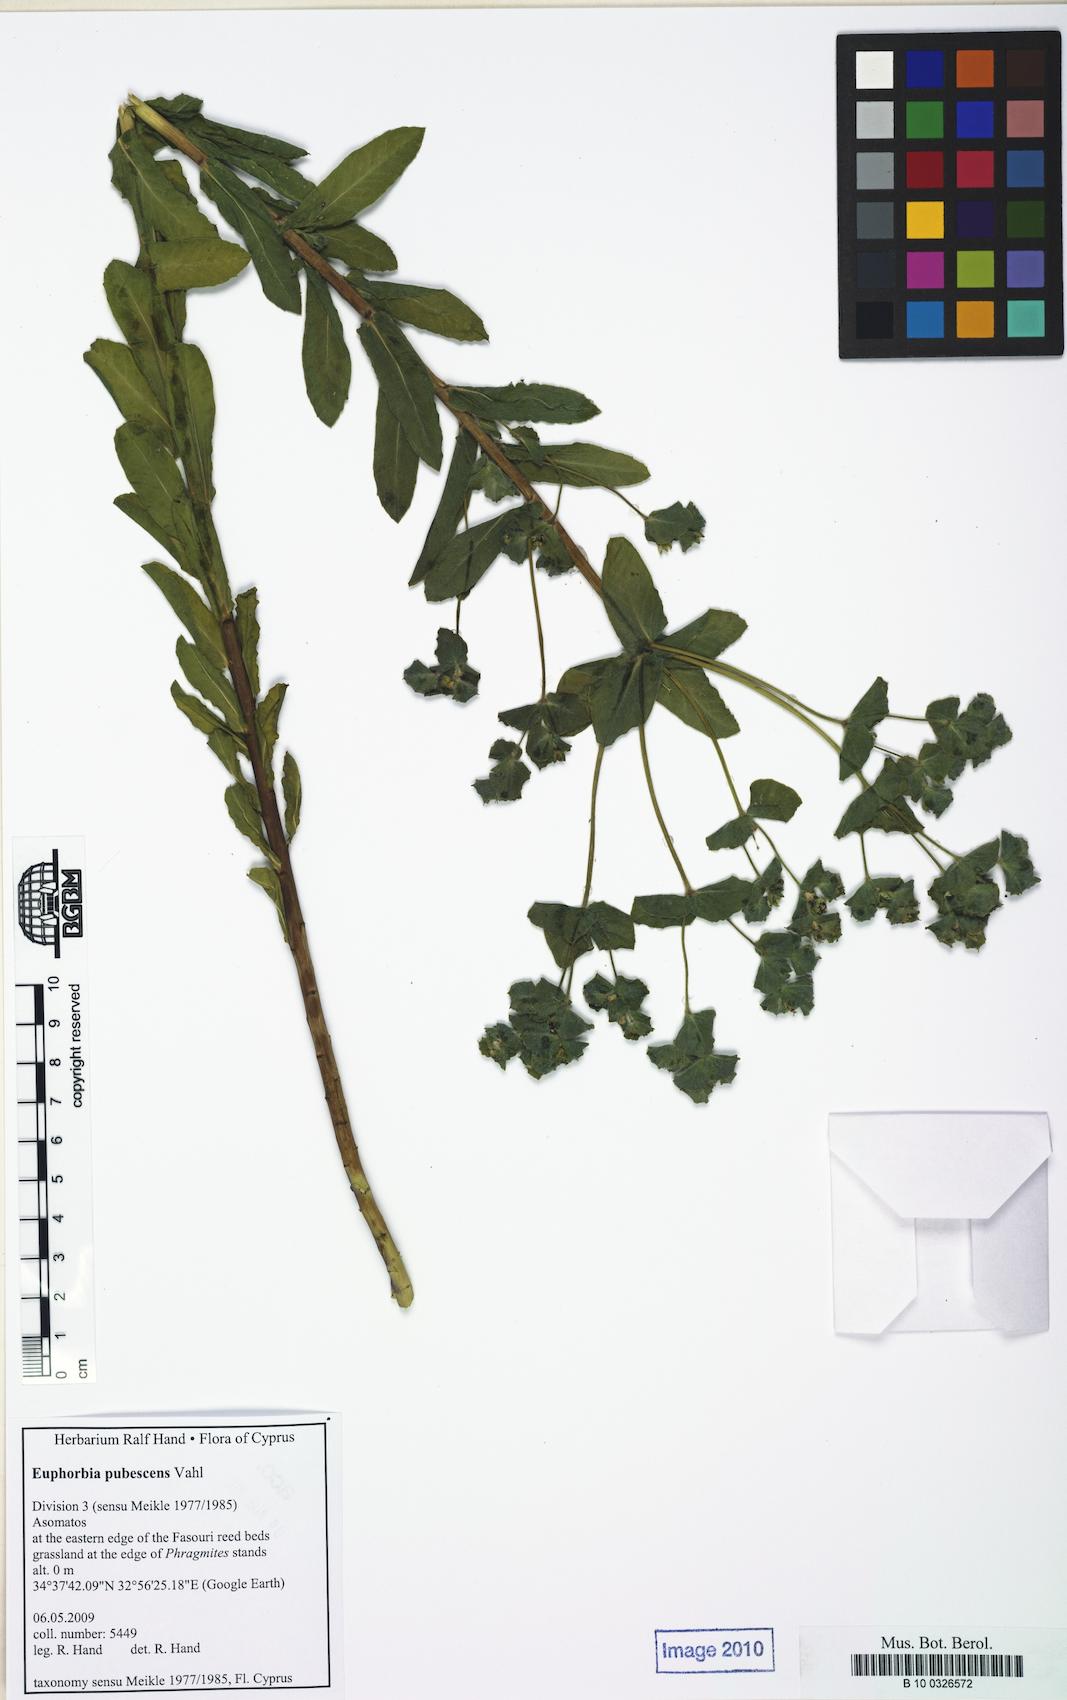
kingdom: Plantae
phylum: Tracheophyta
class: Magnoliopsida
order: Malpighiales
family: Euphorbiaceae
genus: Euphorbia
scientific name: Euphorbia hirsuta
